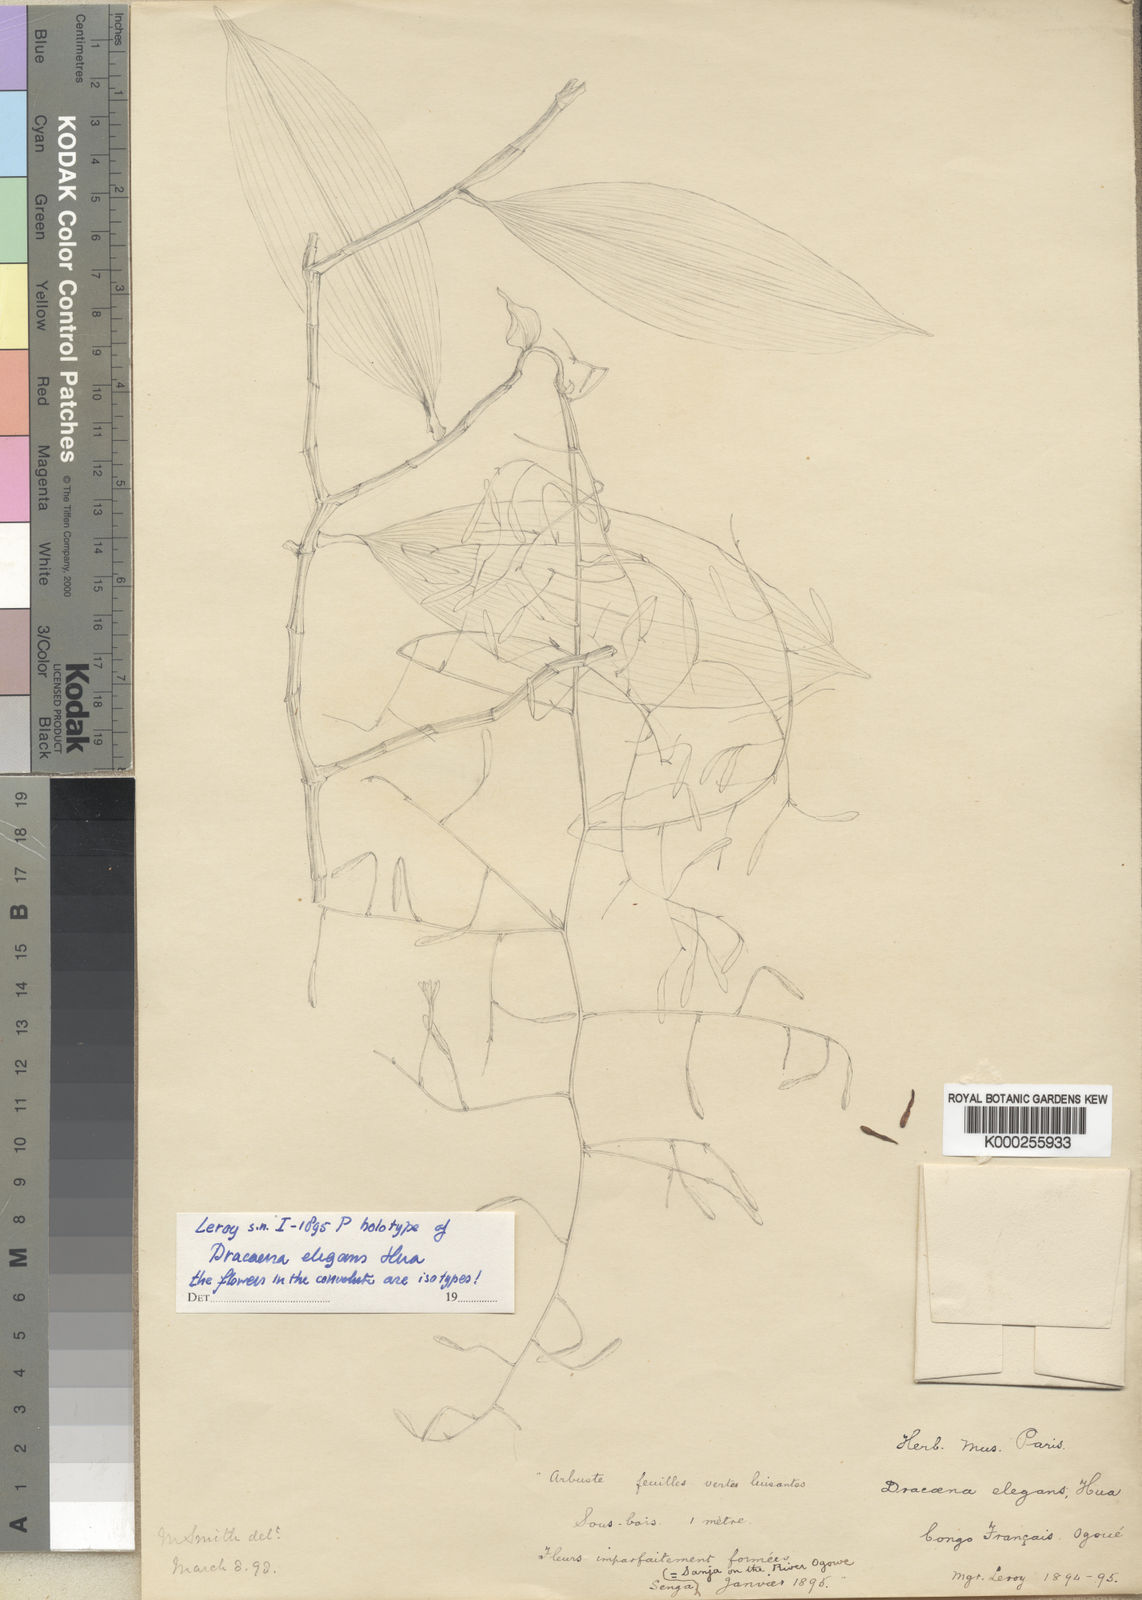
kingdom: Plantae
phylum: Tracheophyta
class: Liliopsida
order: Asparagales
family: Asparagaceae
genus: Dracaena
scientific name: Dracaena laxissima
